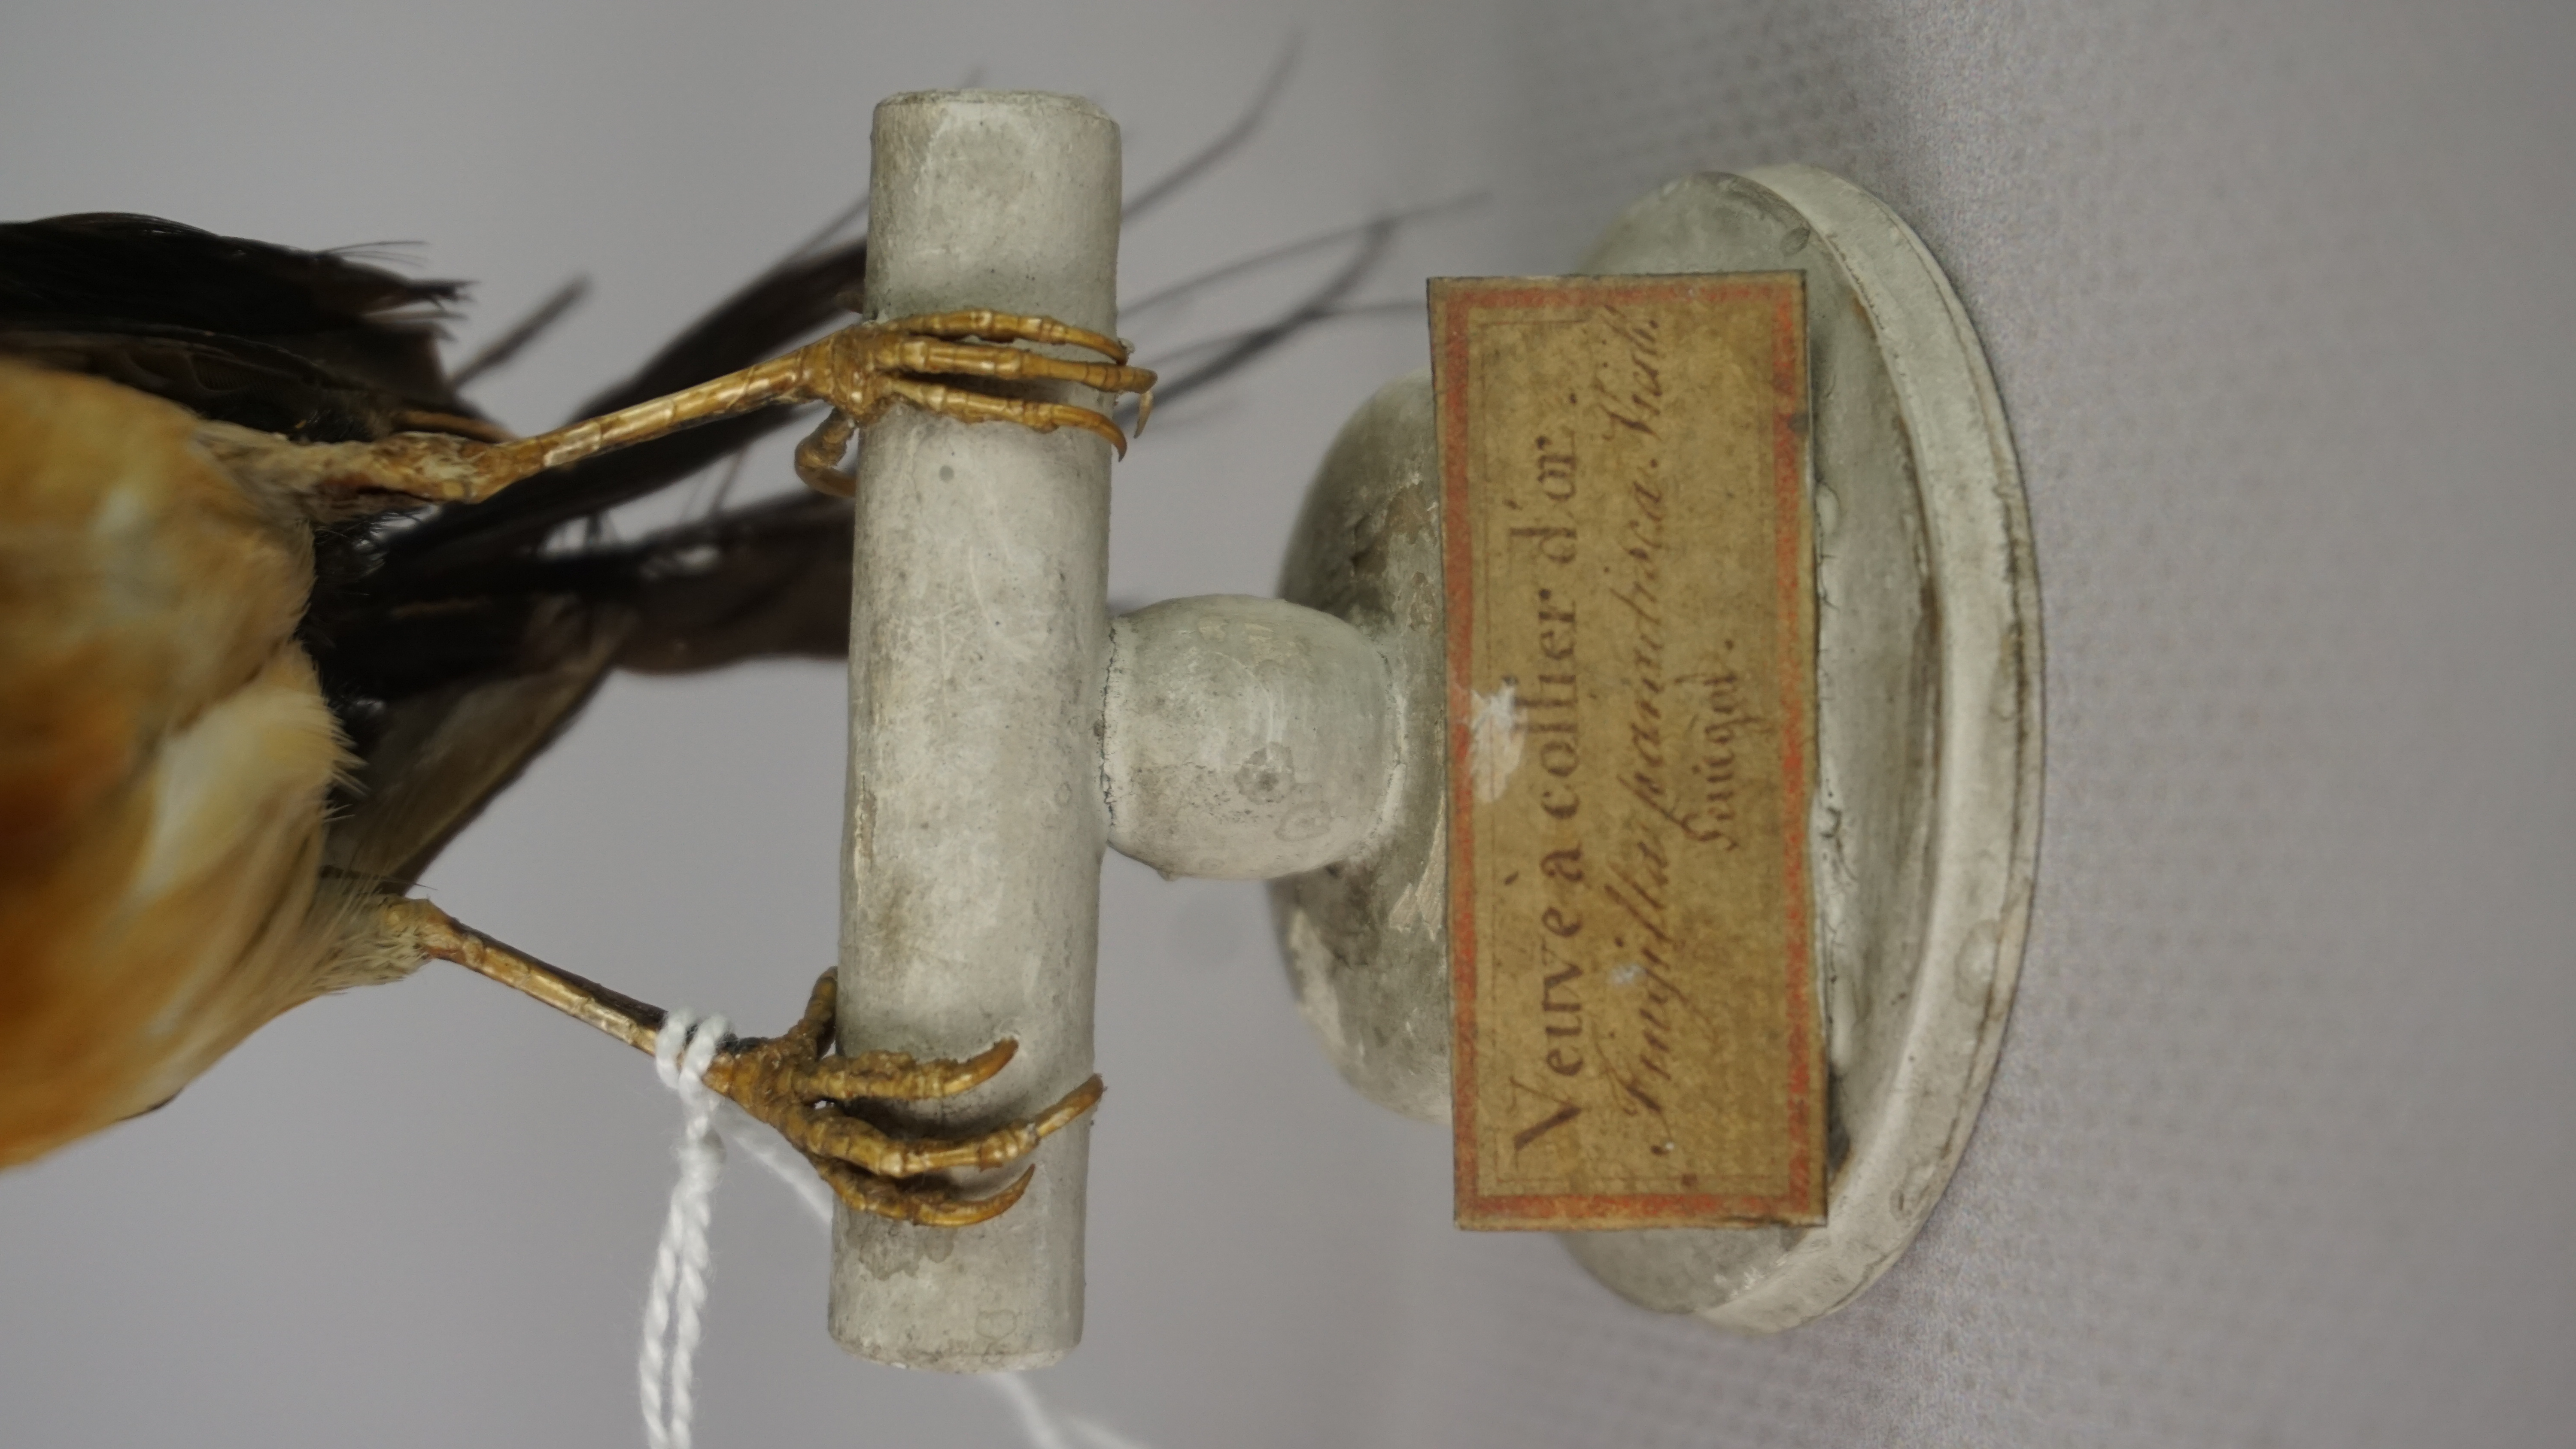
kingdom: Animalia
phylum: Chordata
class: Aves
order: Passeriformes
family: Viduidae
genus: Vidua
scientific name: Vidua
